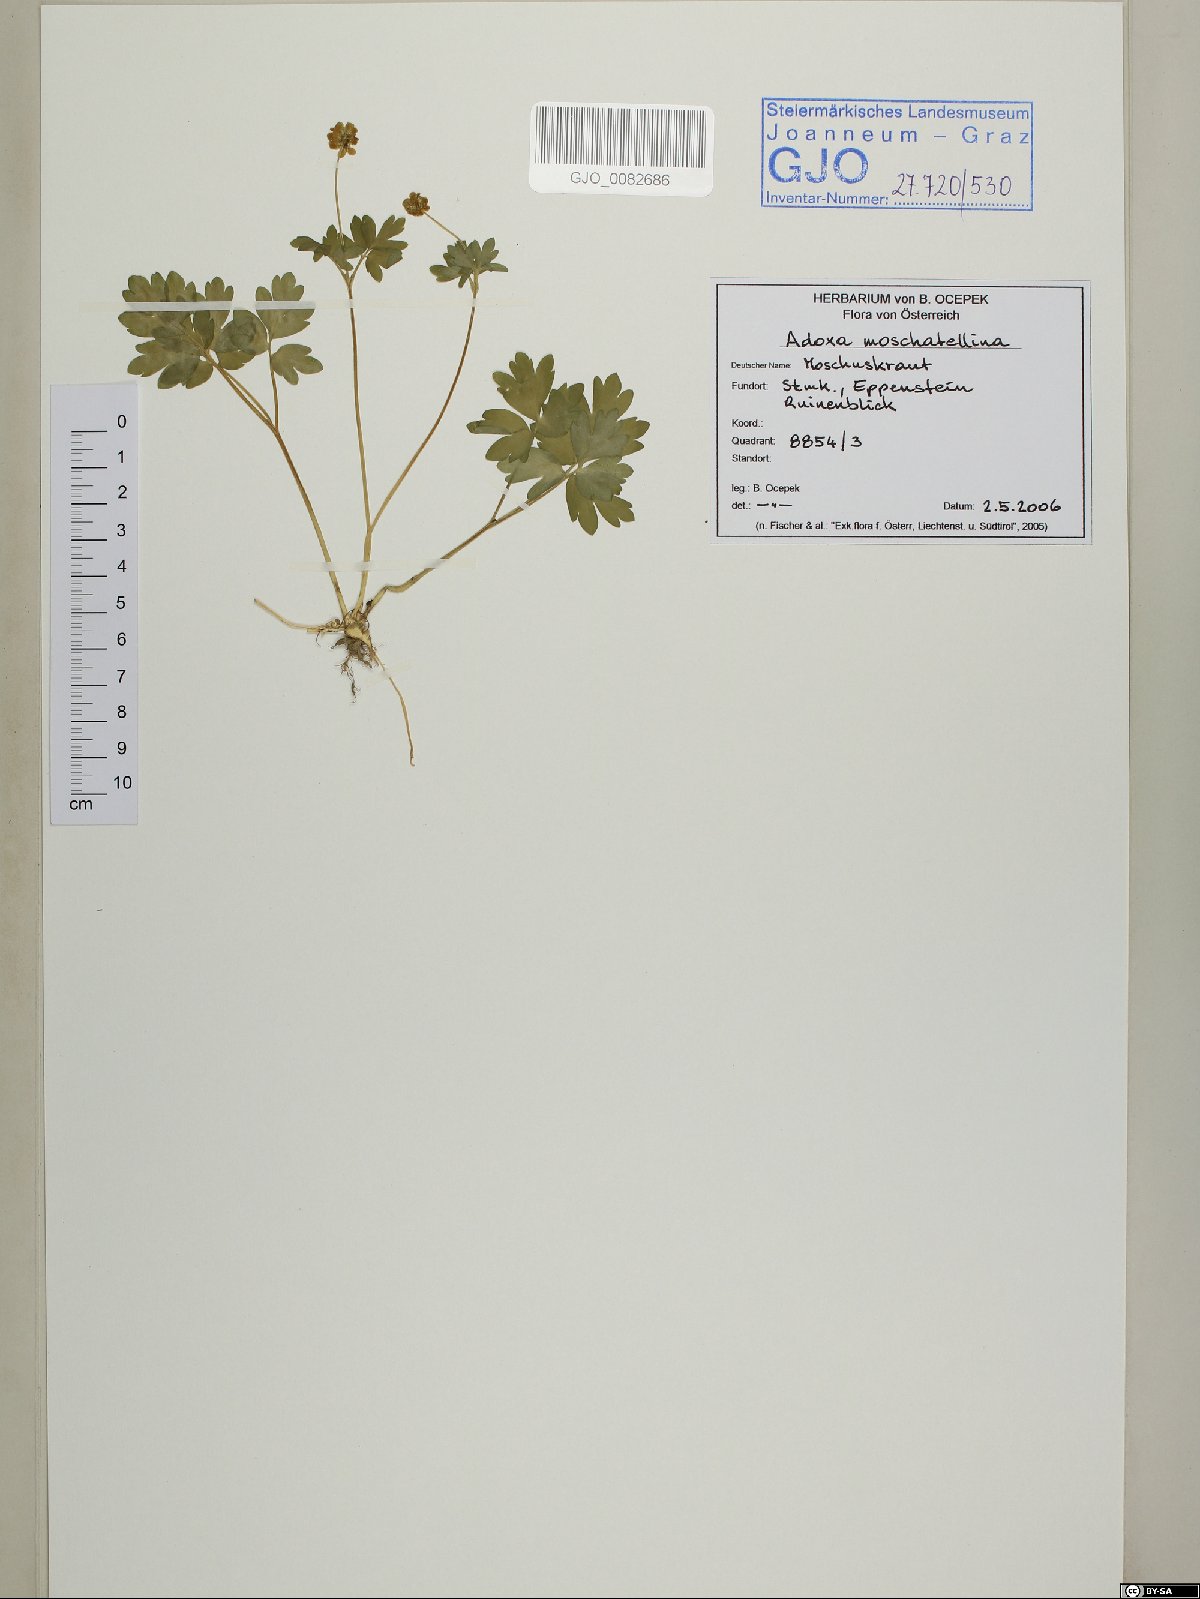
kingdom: Plantae
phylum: Tracheophyta
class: Magnoliopsida
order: Dipsacales
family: Viburnaceae
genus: Adoxa
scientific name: Adoxa moschatellina
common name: Moschatel
